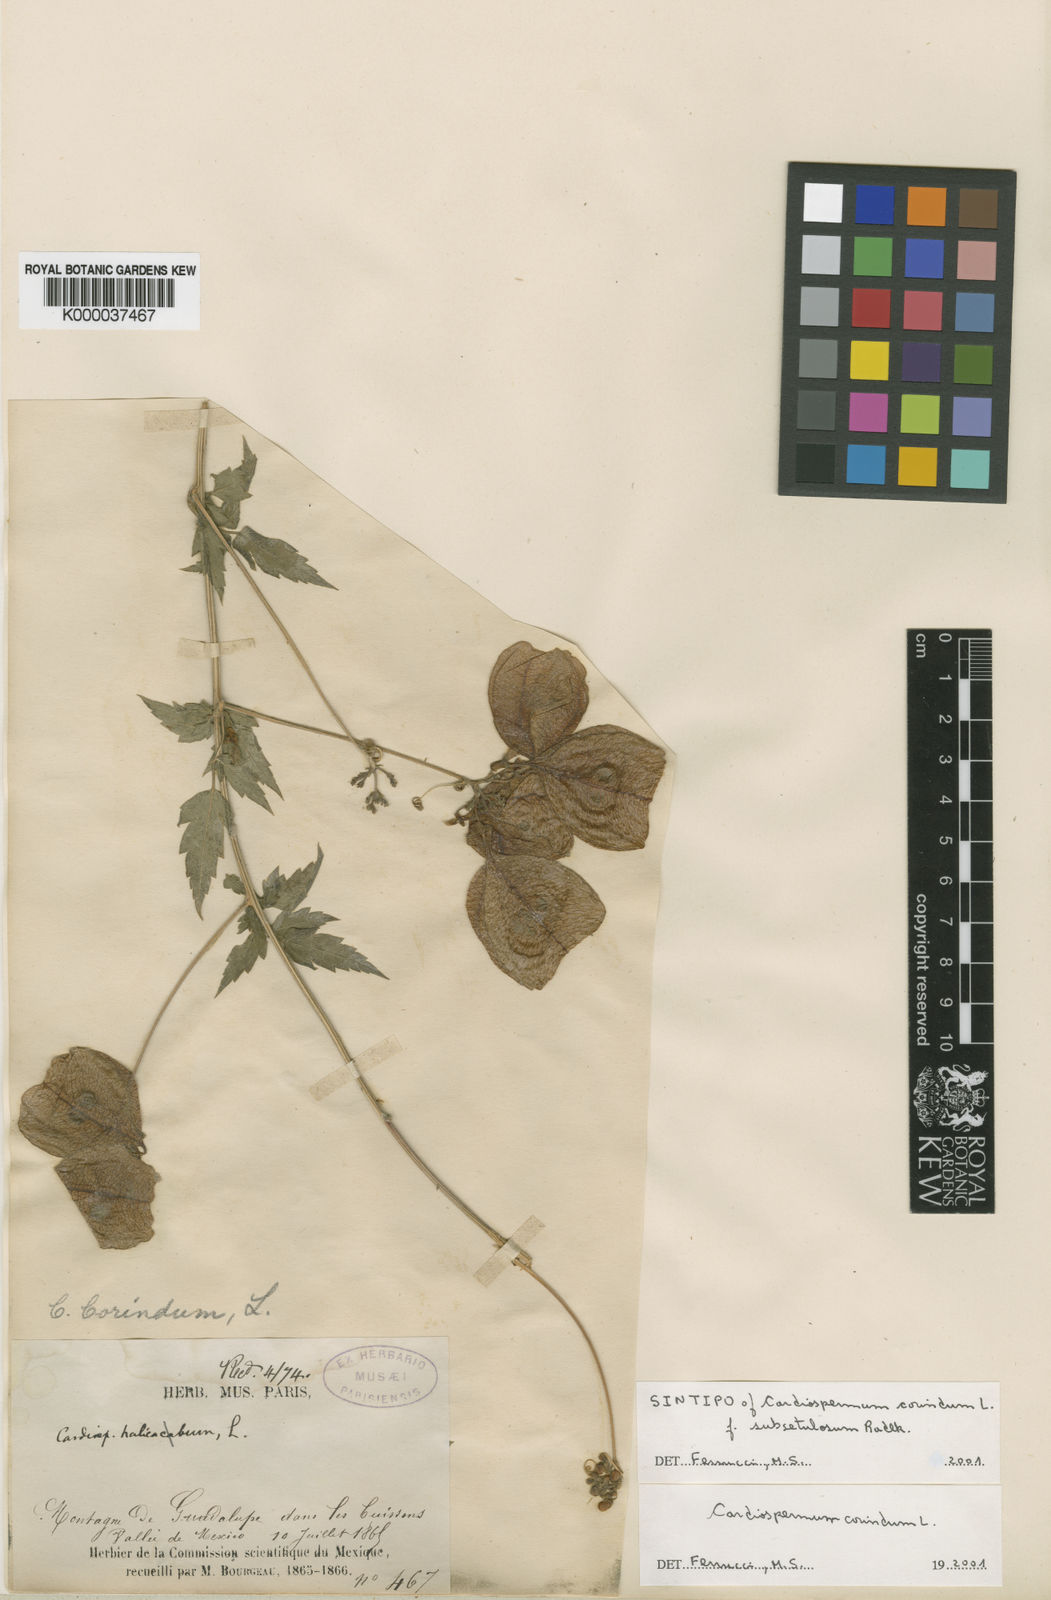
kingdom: Plantae
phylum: Tracheophyta
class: Magnoliopsida
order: Sapindales
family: Sapindaceae
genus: Cardiospermum
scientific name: Cardiospermum corindum
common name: Faux persil
